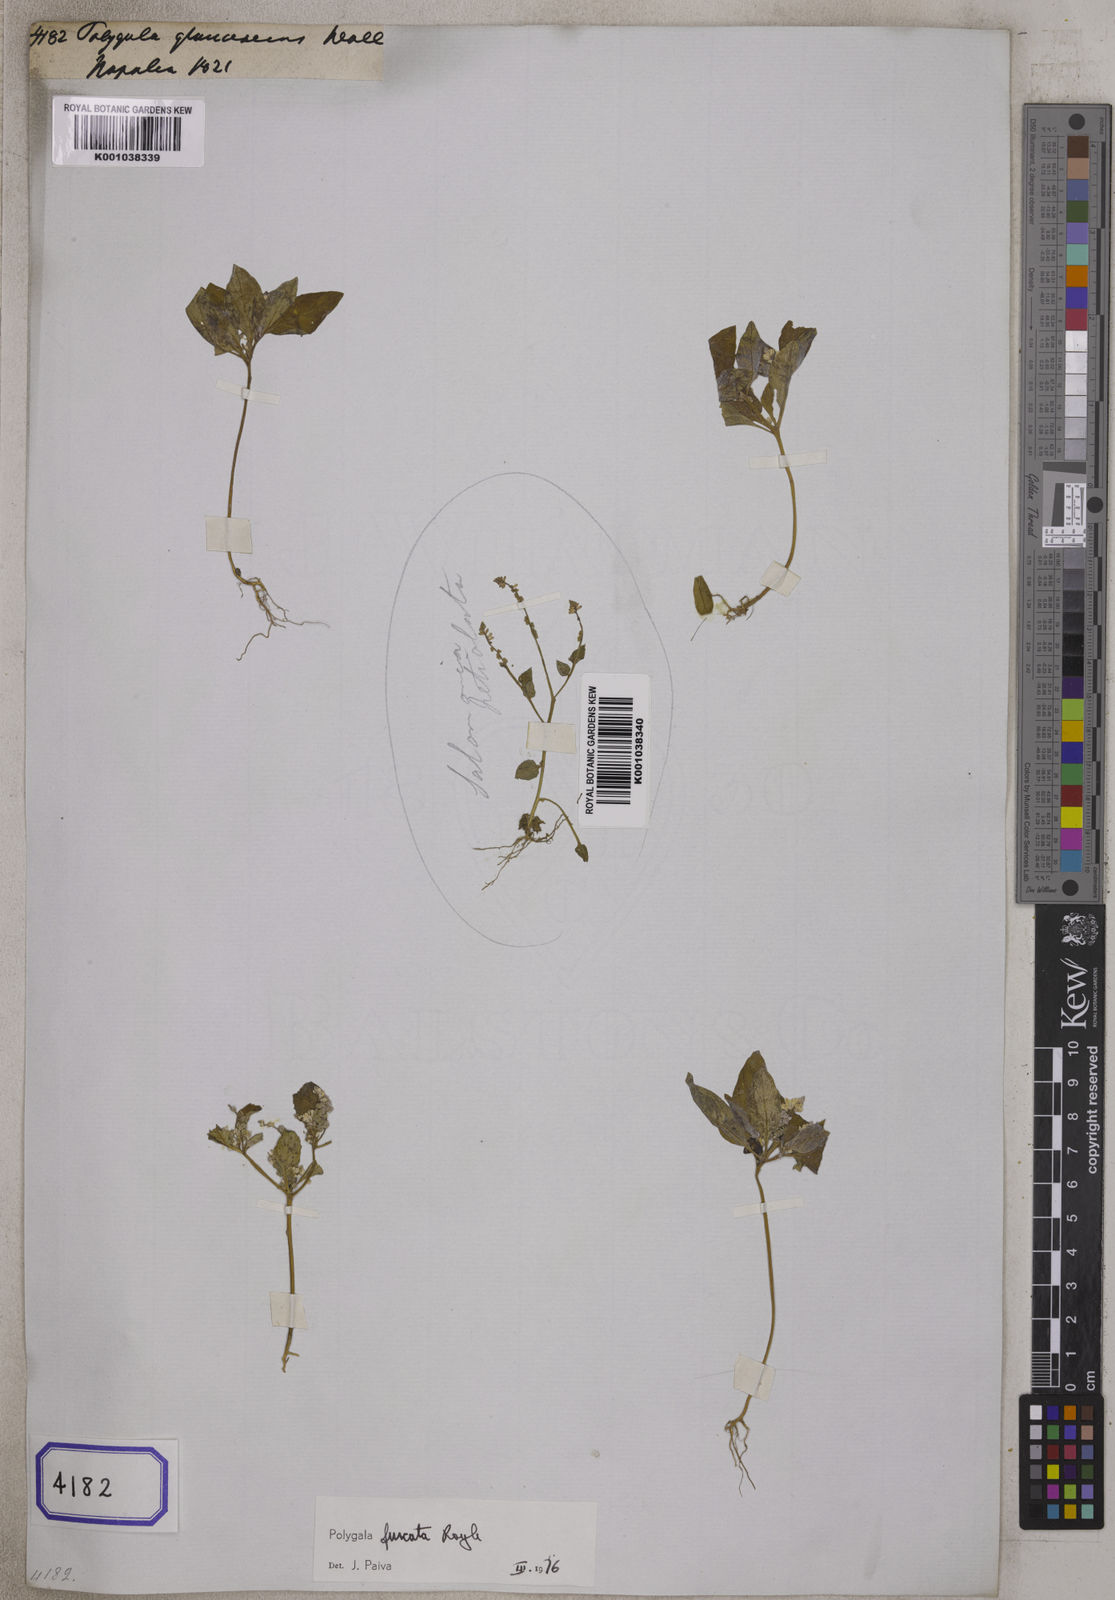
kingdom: Plantae
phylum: Tracheophyta
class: Magnoliopsida
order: Fabales
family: Polygalaceae
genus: Polygala
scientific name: Polygala
